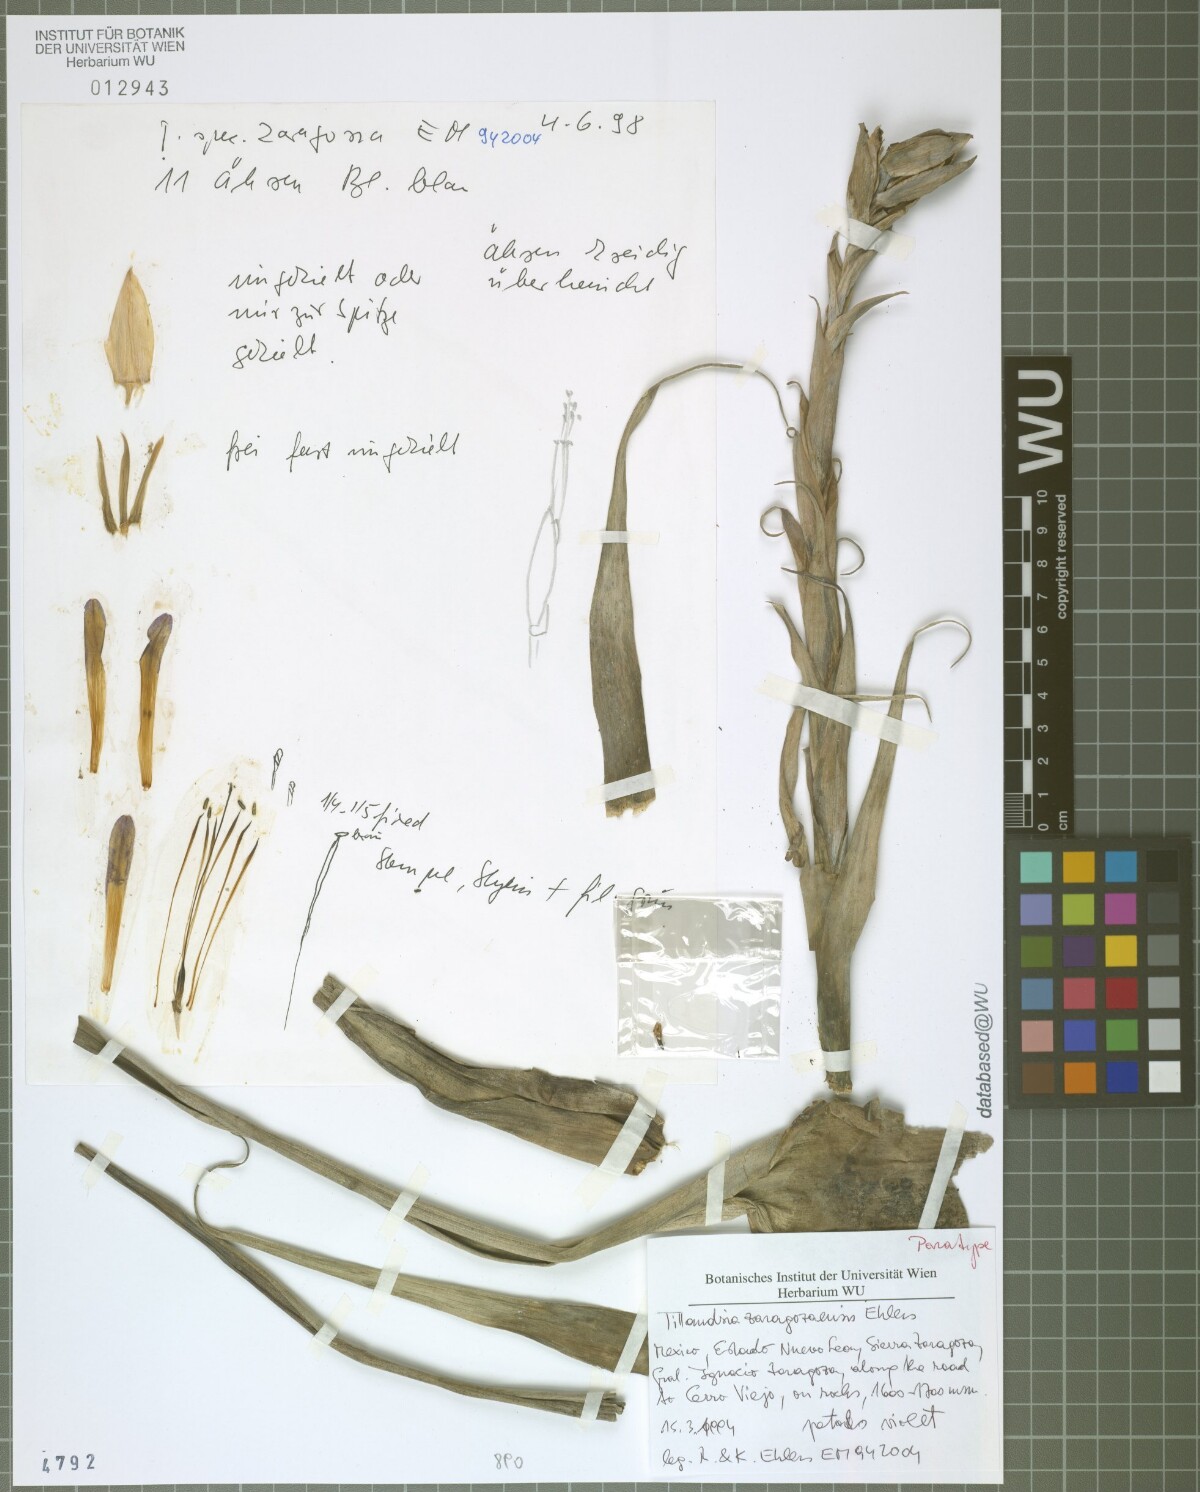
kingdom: Plantae
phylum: Tracheophyta
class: Liliopsida
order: Poales
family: Bromeliaceae
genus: Tillandsia
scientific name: Tillandsia zaragozaensis
